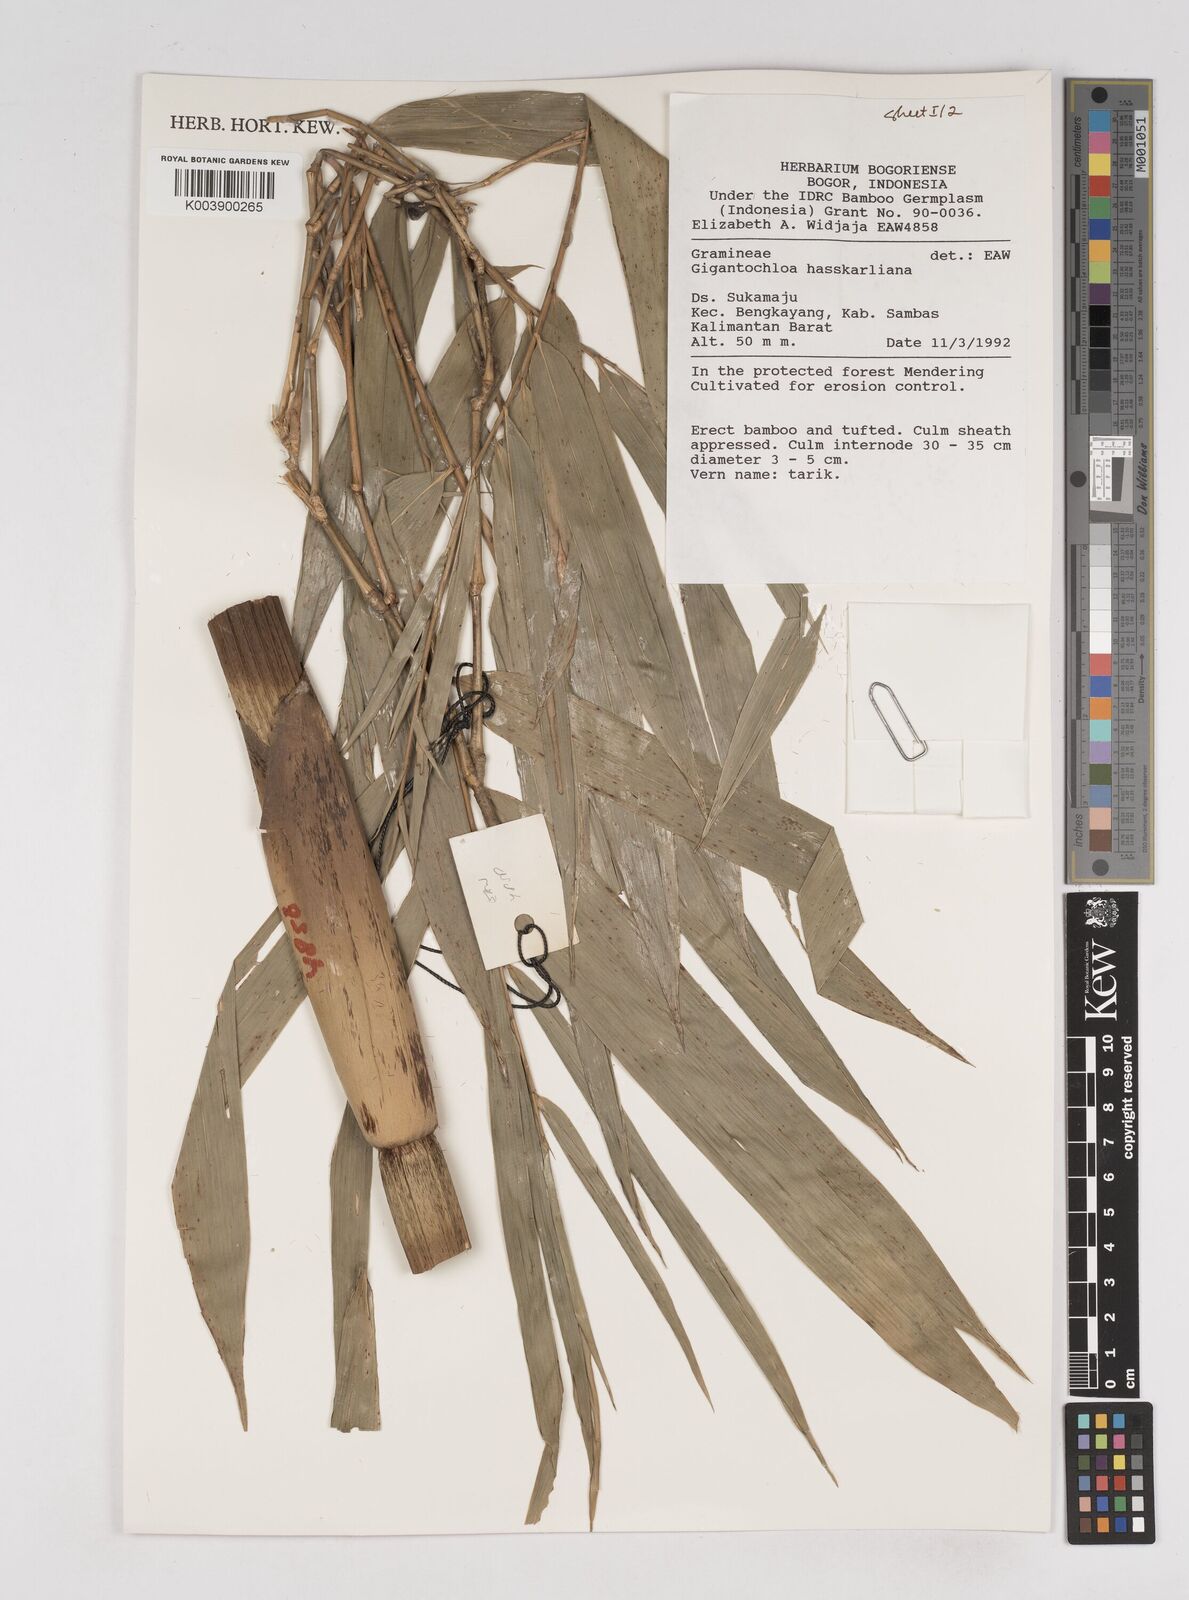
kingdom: Plantae
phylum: Tracheophyta
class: Liliopsida
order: Poales
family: Poaceae
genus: Gigantochloa
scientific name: Gigantochloa hasskarliana
